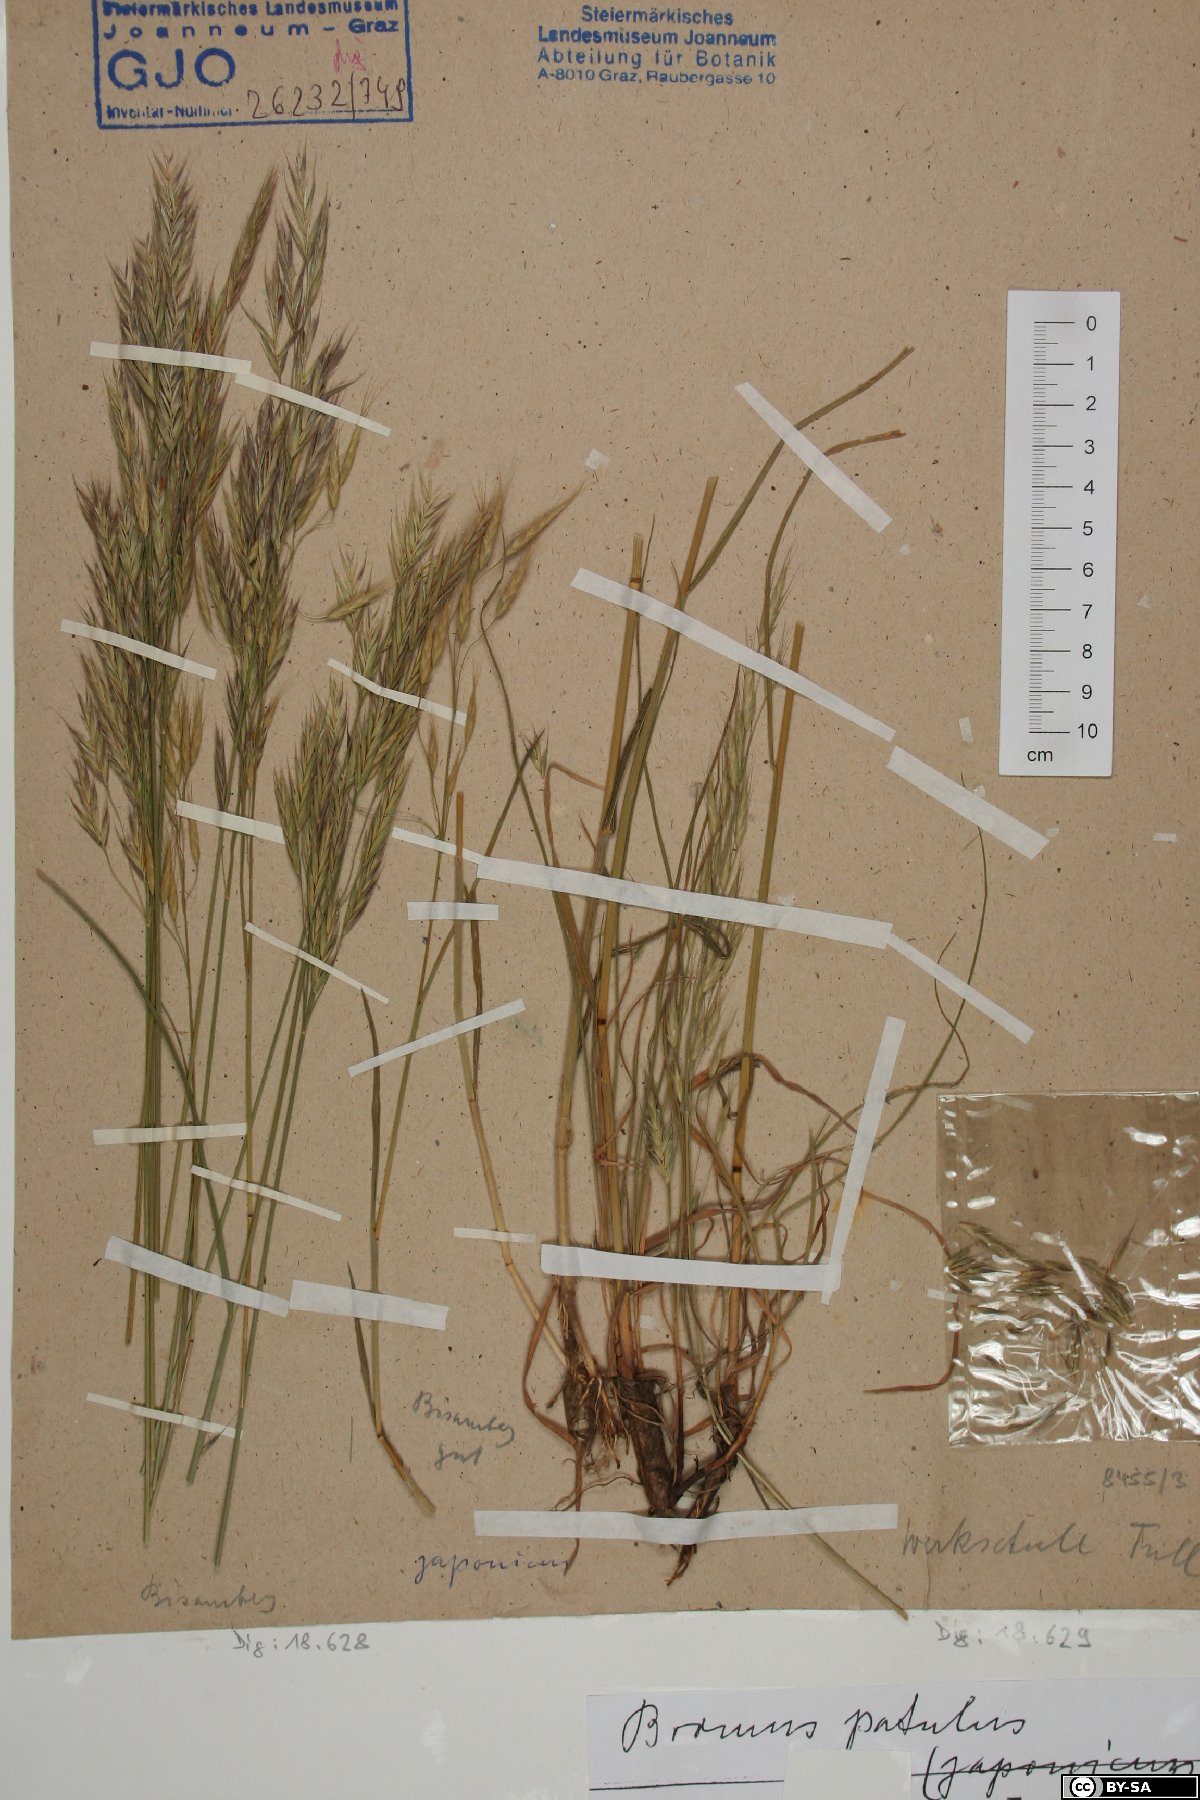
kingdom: Plantae
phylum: Tracheophyta
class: Liliopsida
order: Poales
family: Poaceae
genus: Bromus
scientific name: Bromus japonicus
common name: Japanese brome
